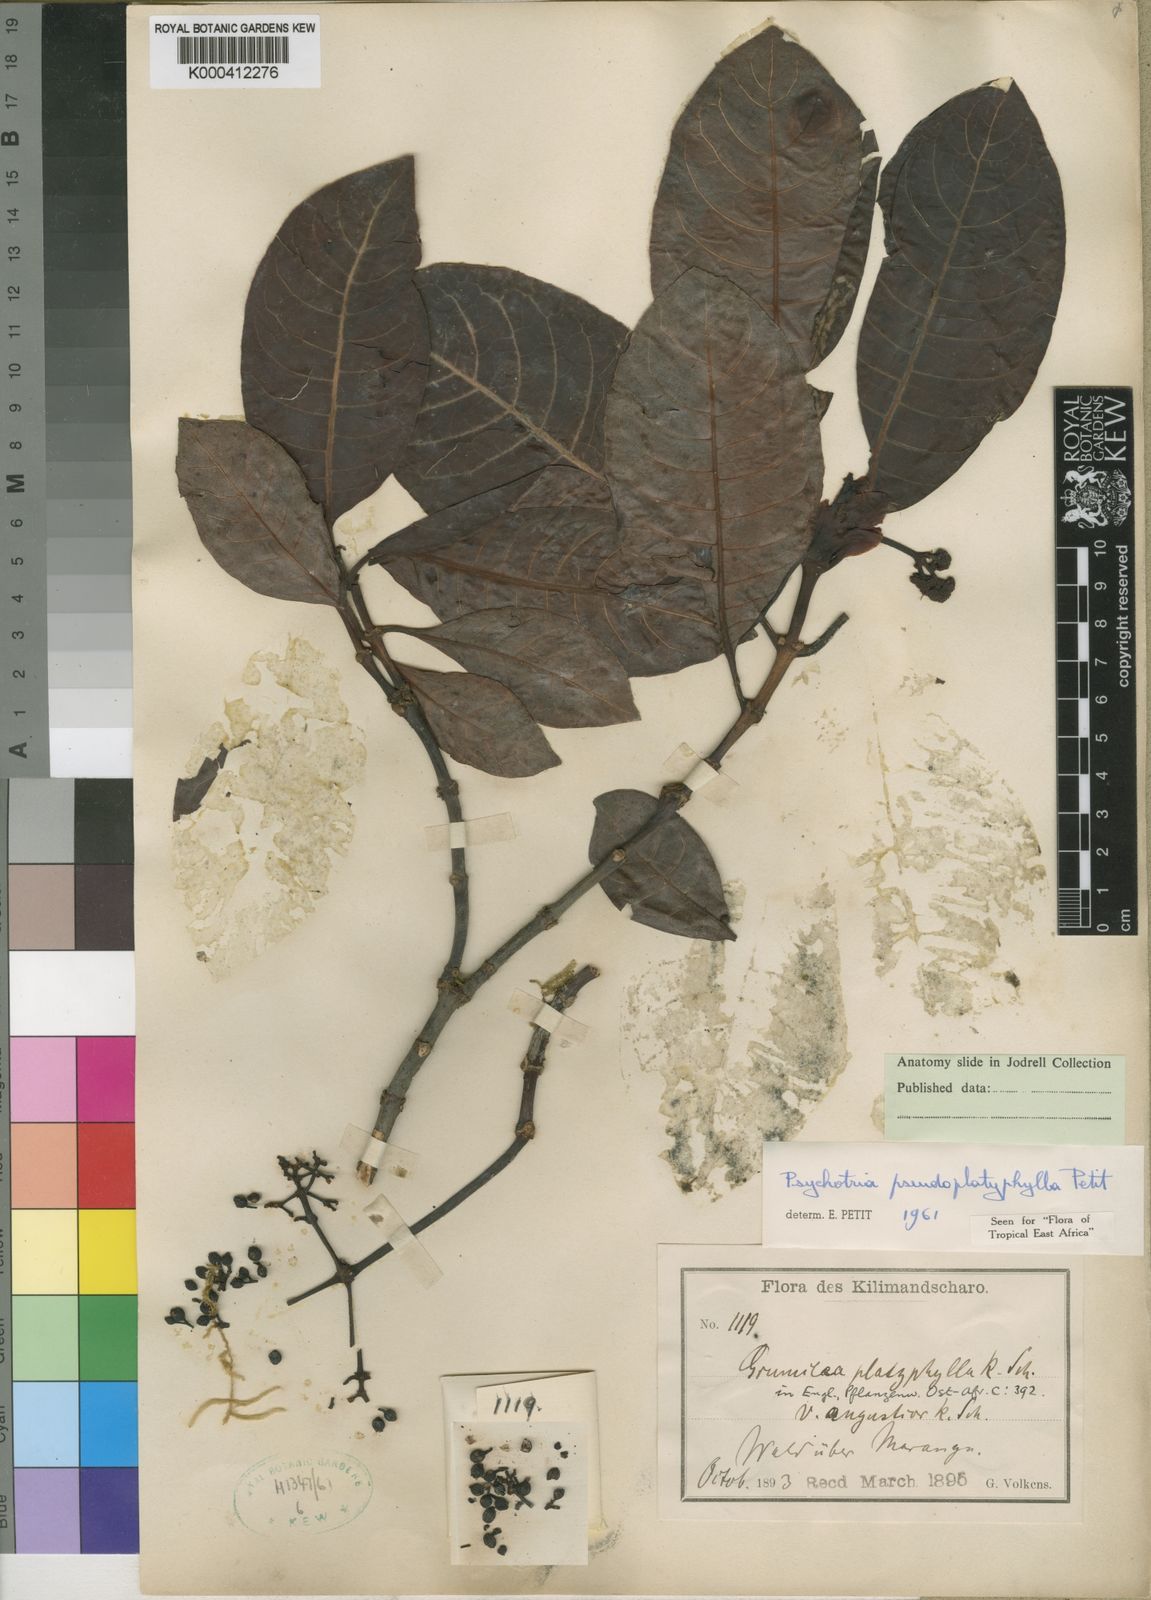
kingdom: Plantae
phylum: Tracheophyta
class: Magnoliopsida
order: Gentianales
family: Rubiaceae
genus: Psychotria
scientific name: Psychotria pseudoplatyphylla
